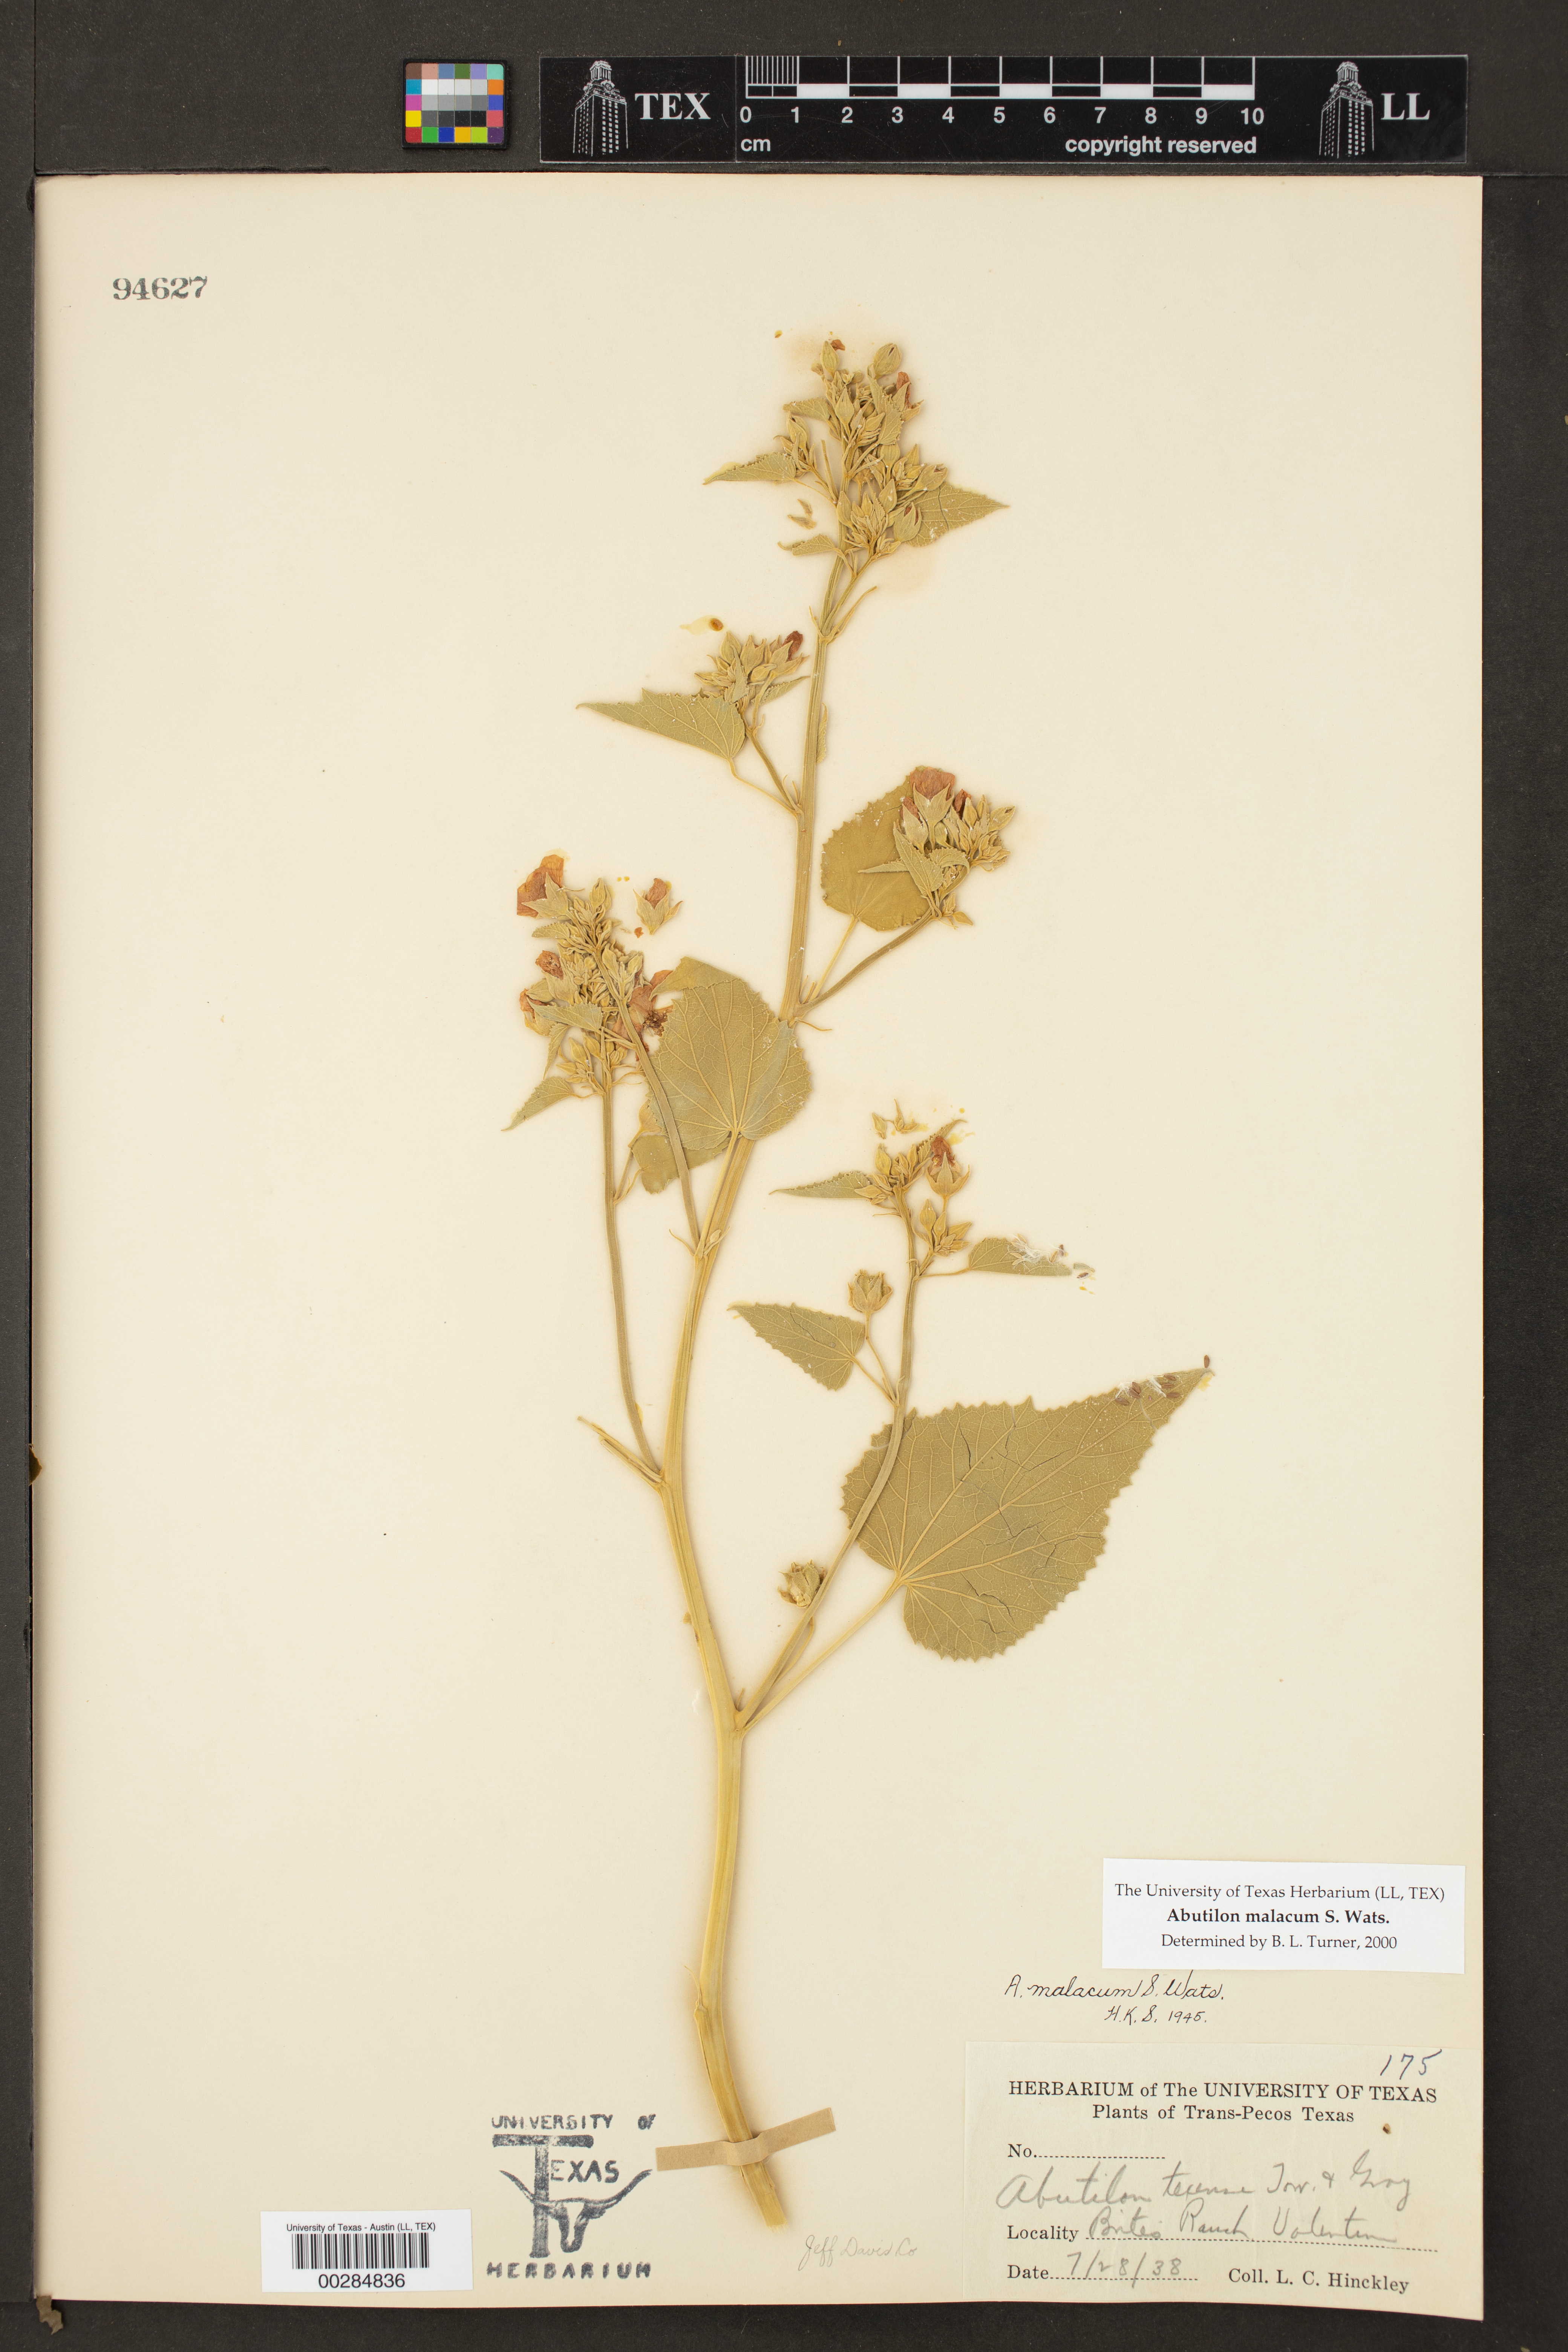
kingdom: Plantae
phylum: Tracheophyta
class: Magnoliopsida
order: Malvales
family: Malvaceae
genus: Abutilon
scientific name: Abutilon malacum
